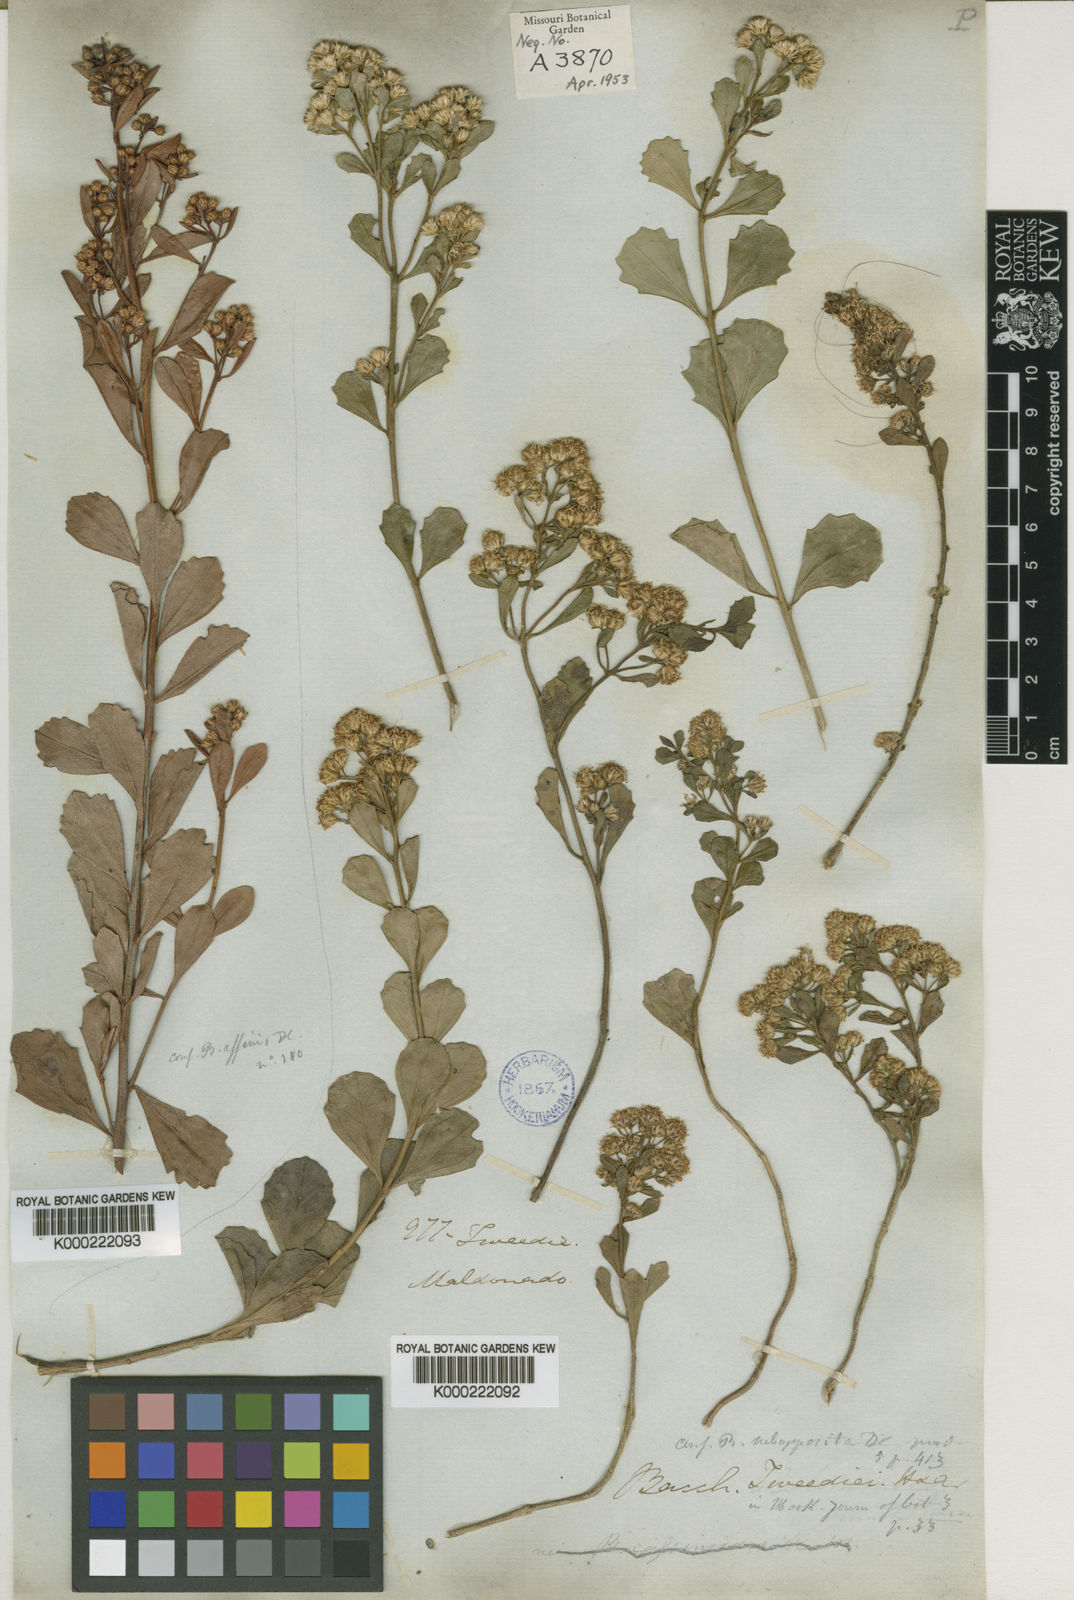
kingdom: Plantae
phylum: Tracheophyta
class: Magnoliopsida
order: Asterales
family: Asteraceae
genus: Baccharis
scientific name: Baccharis tridentata
